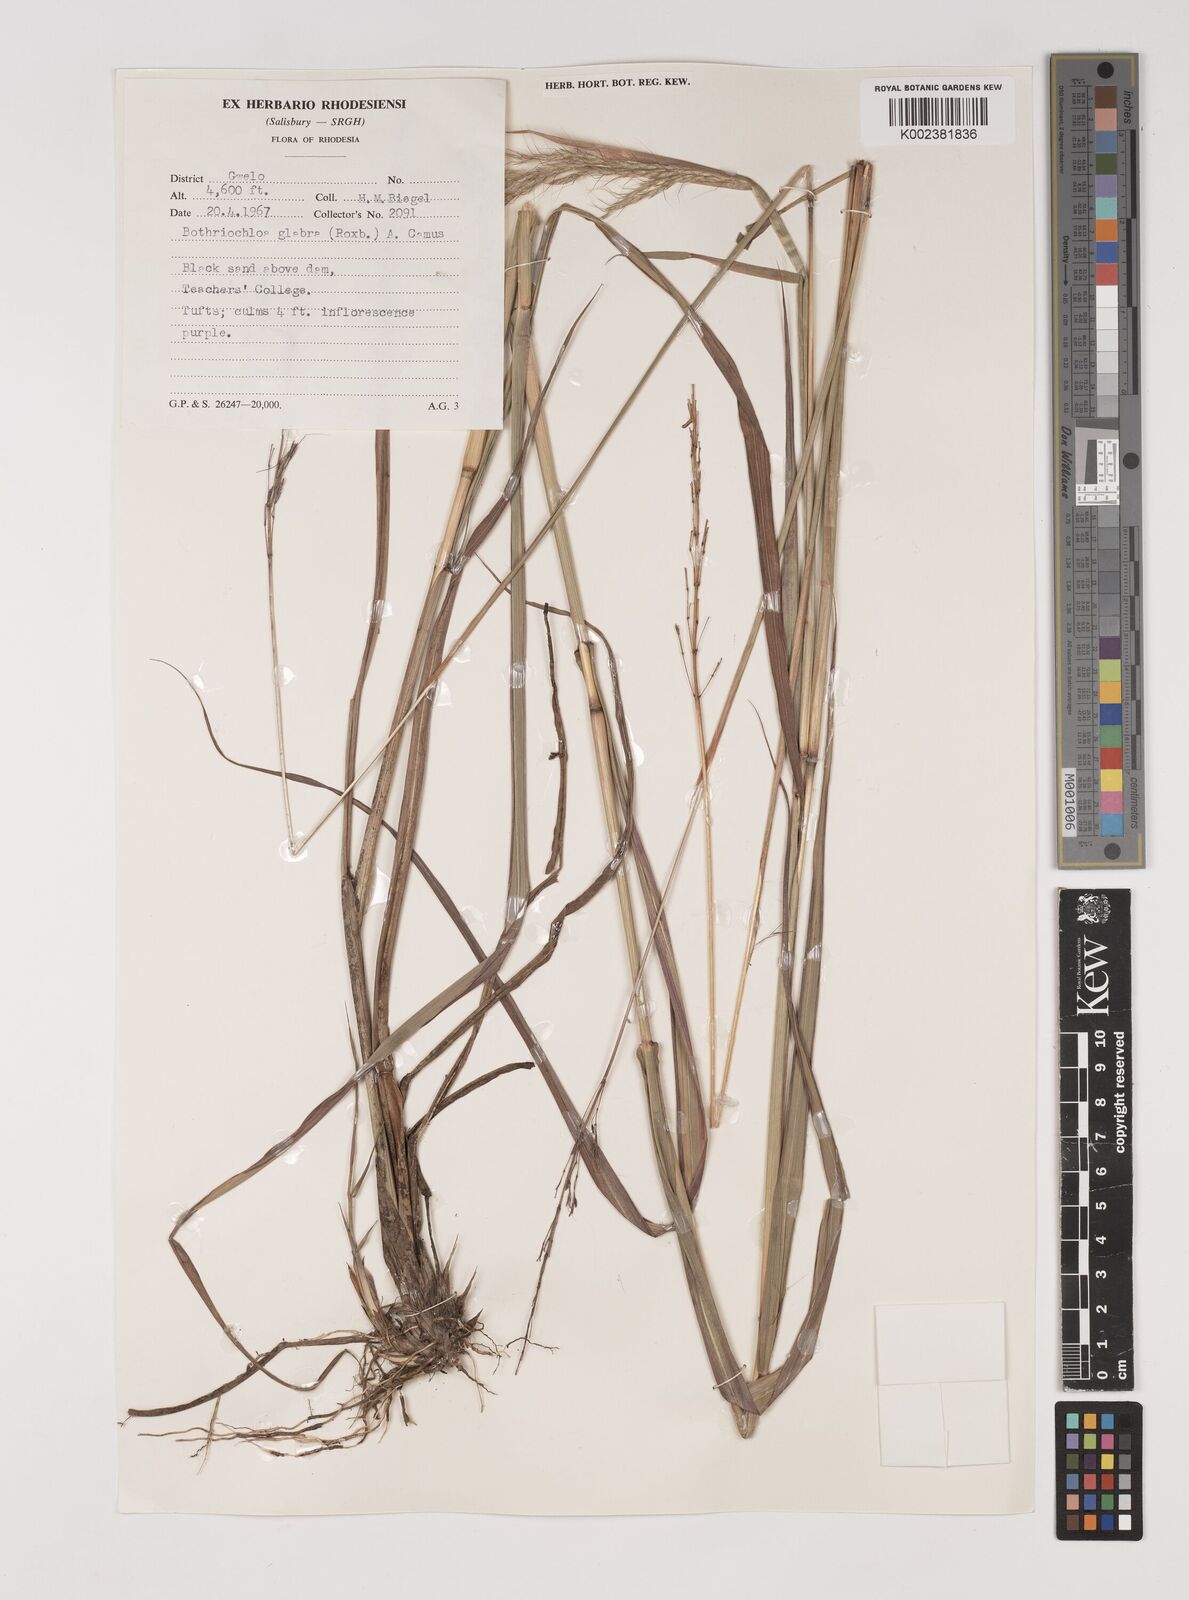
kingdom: Plantae
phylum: Tracheophyta
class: Liliopsida
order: Poales
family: Poaceae
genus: Bothriochloa
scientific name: Bothriochloa bladhii
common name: Caucasian bluestem
